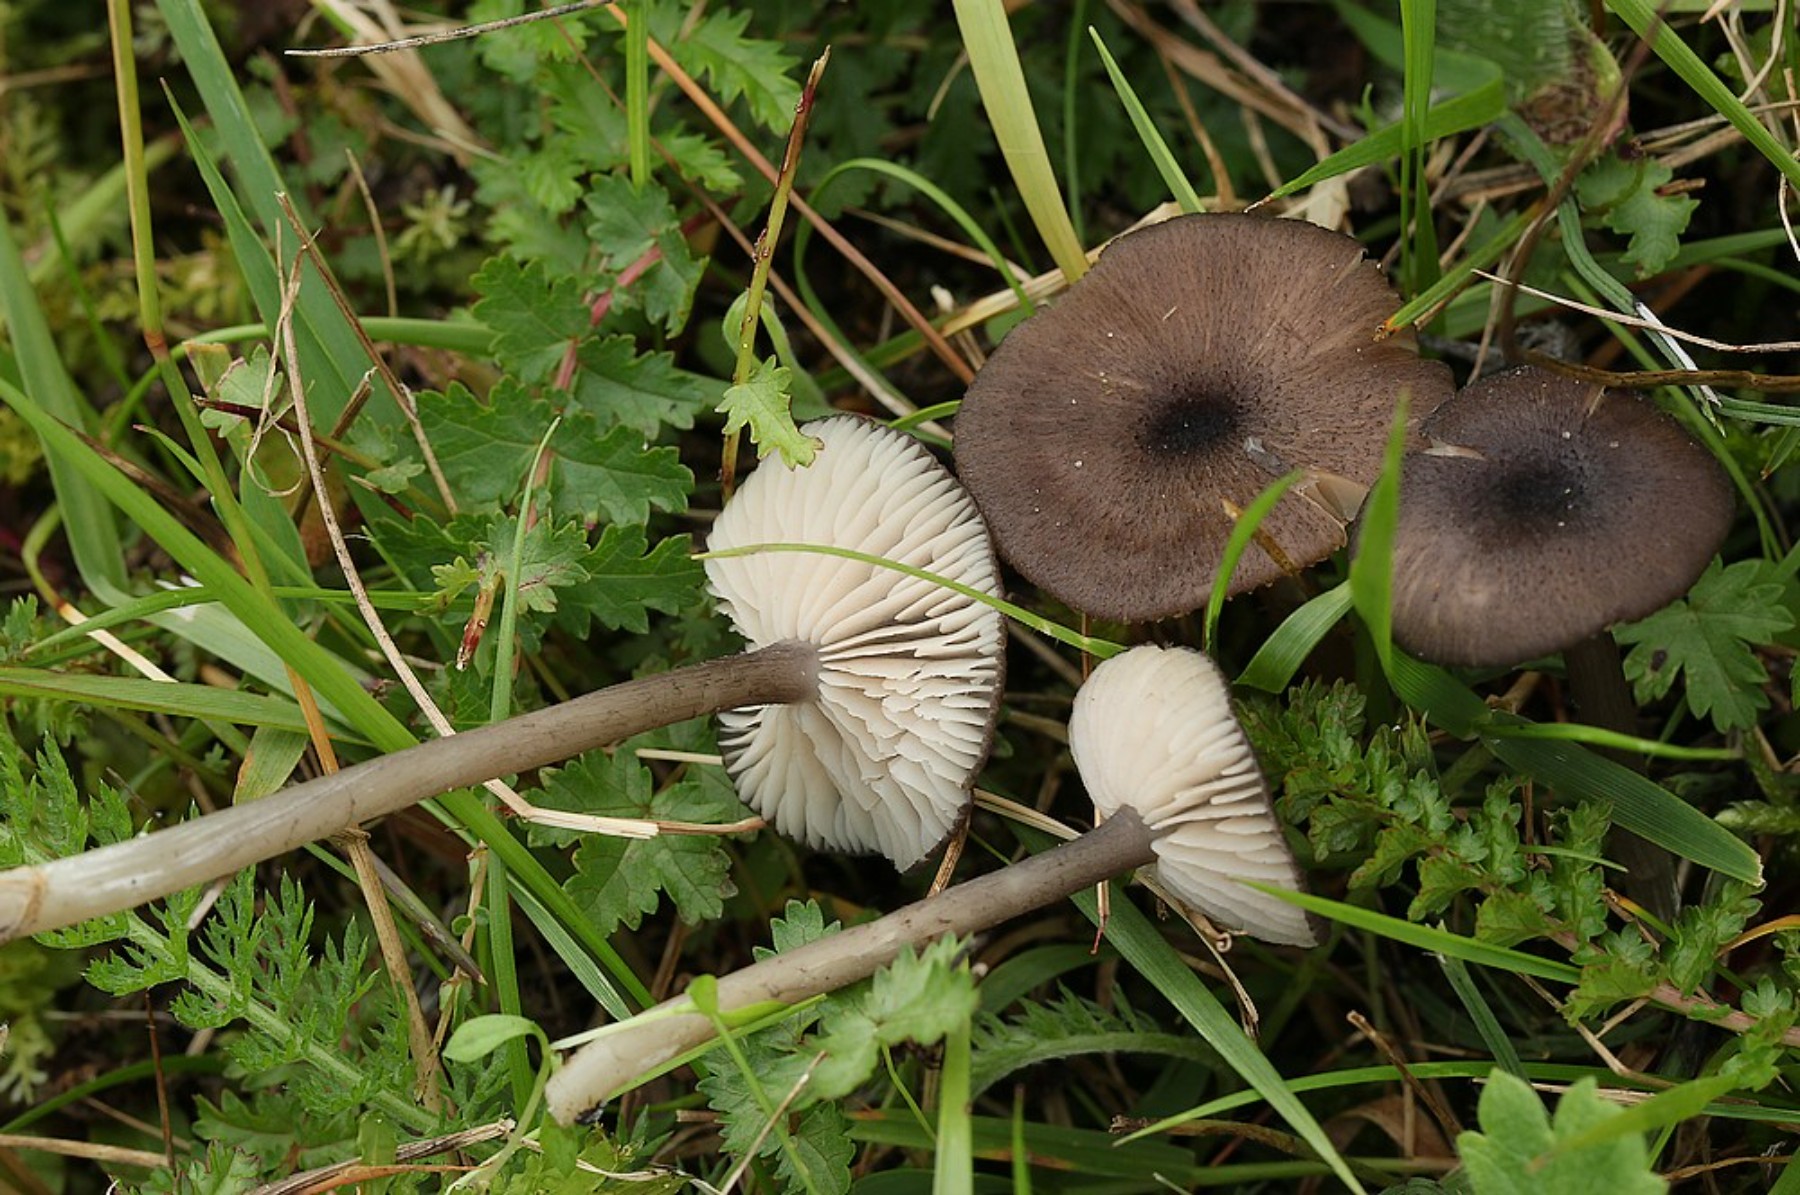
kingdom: Fungi
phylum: Basidiomycota
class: Agaricomycetes
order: Agaricales
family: Entolomataceae
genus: Entoloma
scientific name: Entoloma porphyrogriseum
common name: porfyrgrå rødblad
